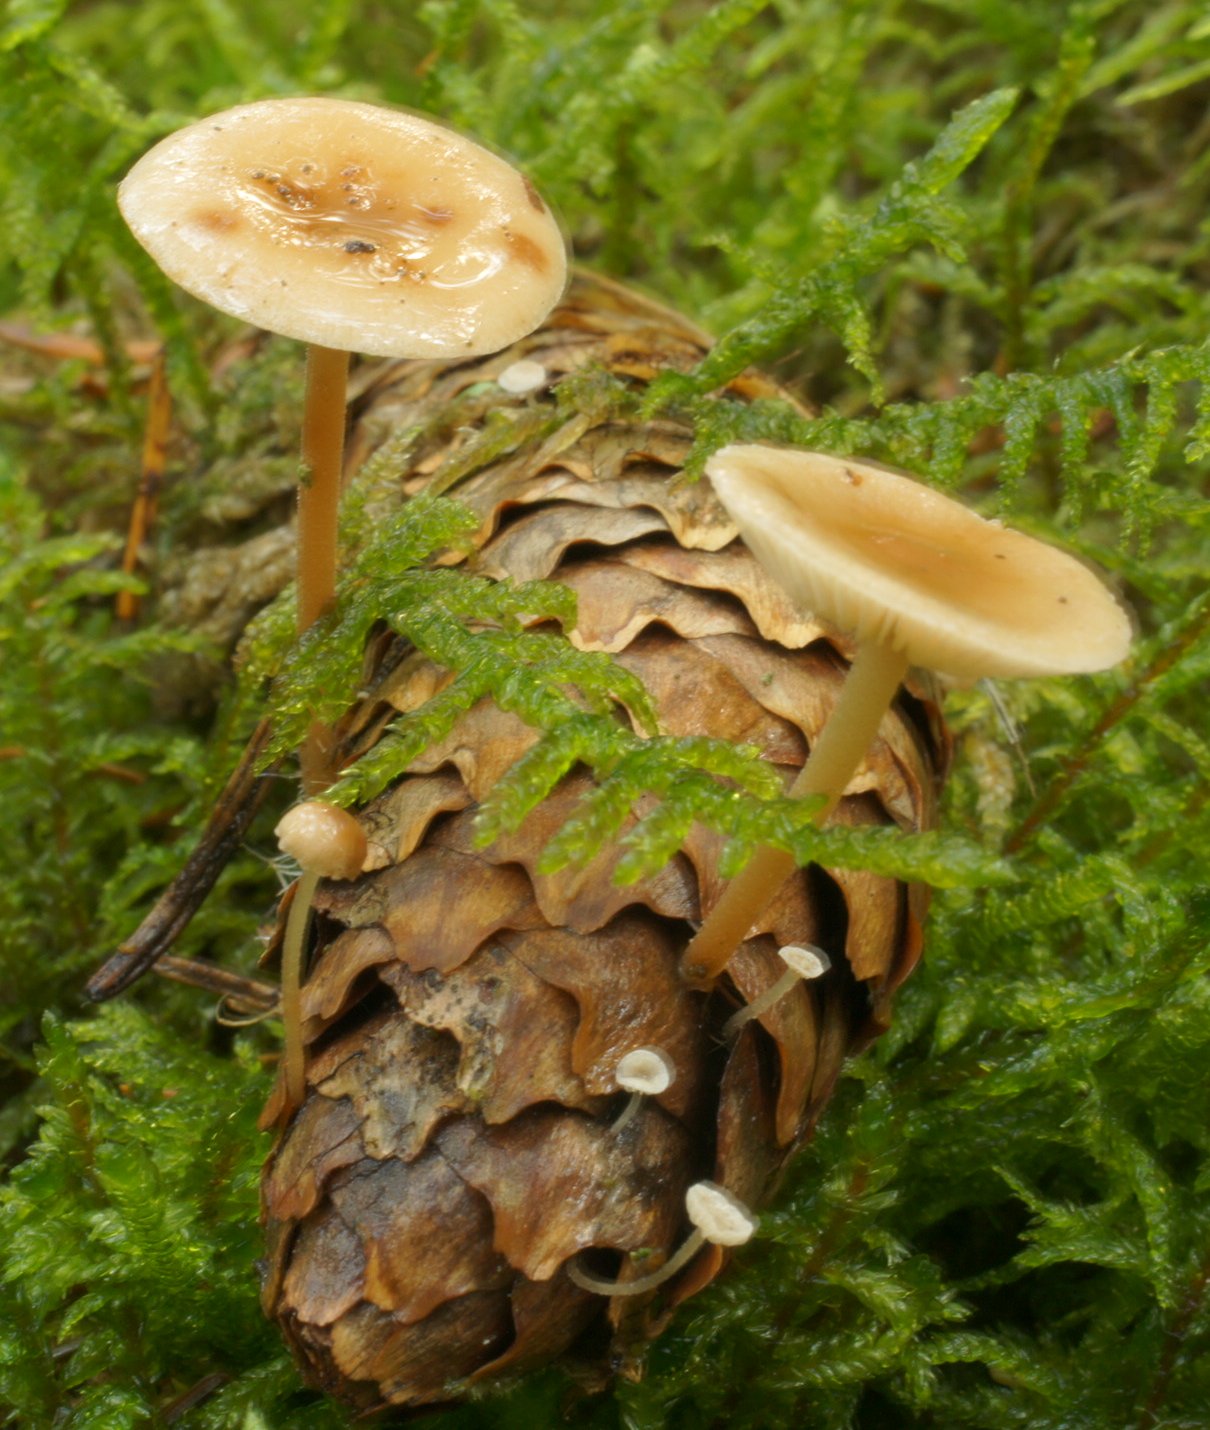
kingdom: Fungi
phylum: Basidiomycota
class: Agaricomycetes
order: Agaricales
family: Marasmiaceae
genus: Baeospora
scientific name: Baeospora myosura
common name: koglebruskhat
